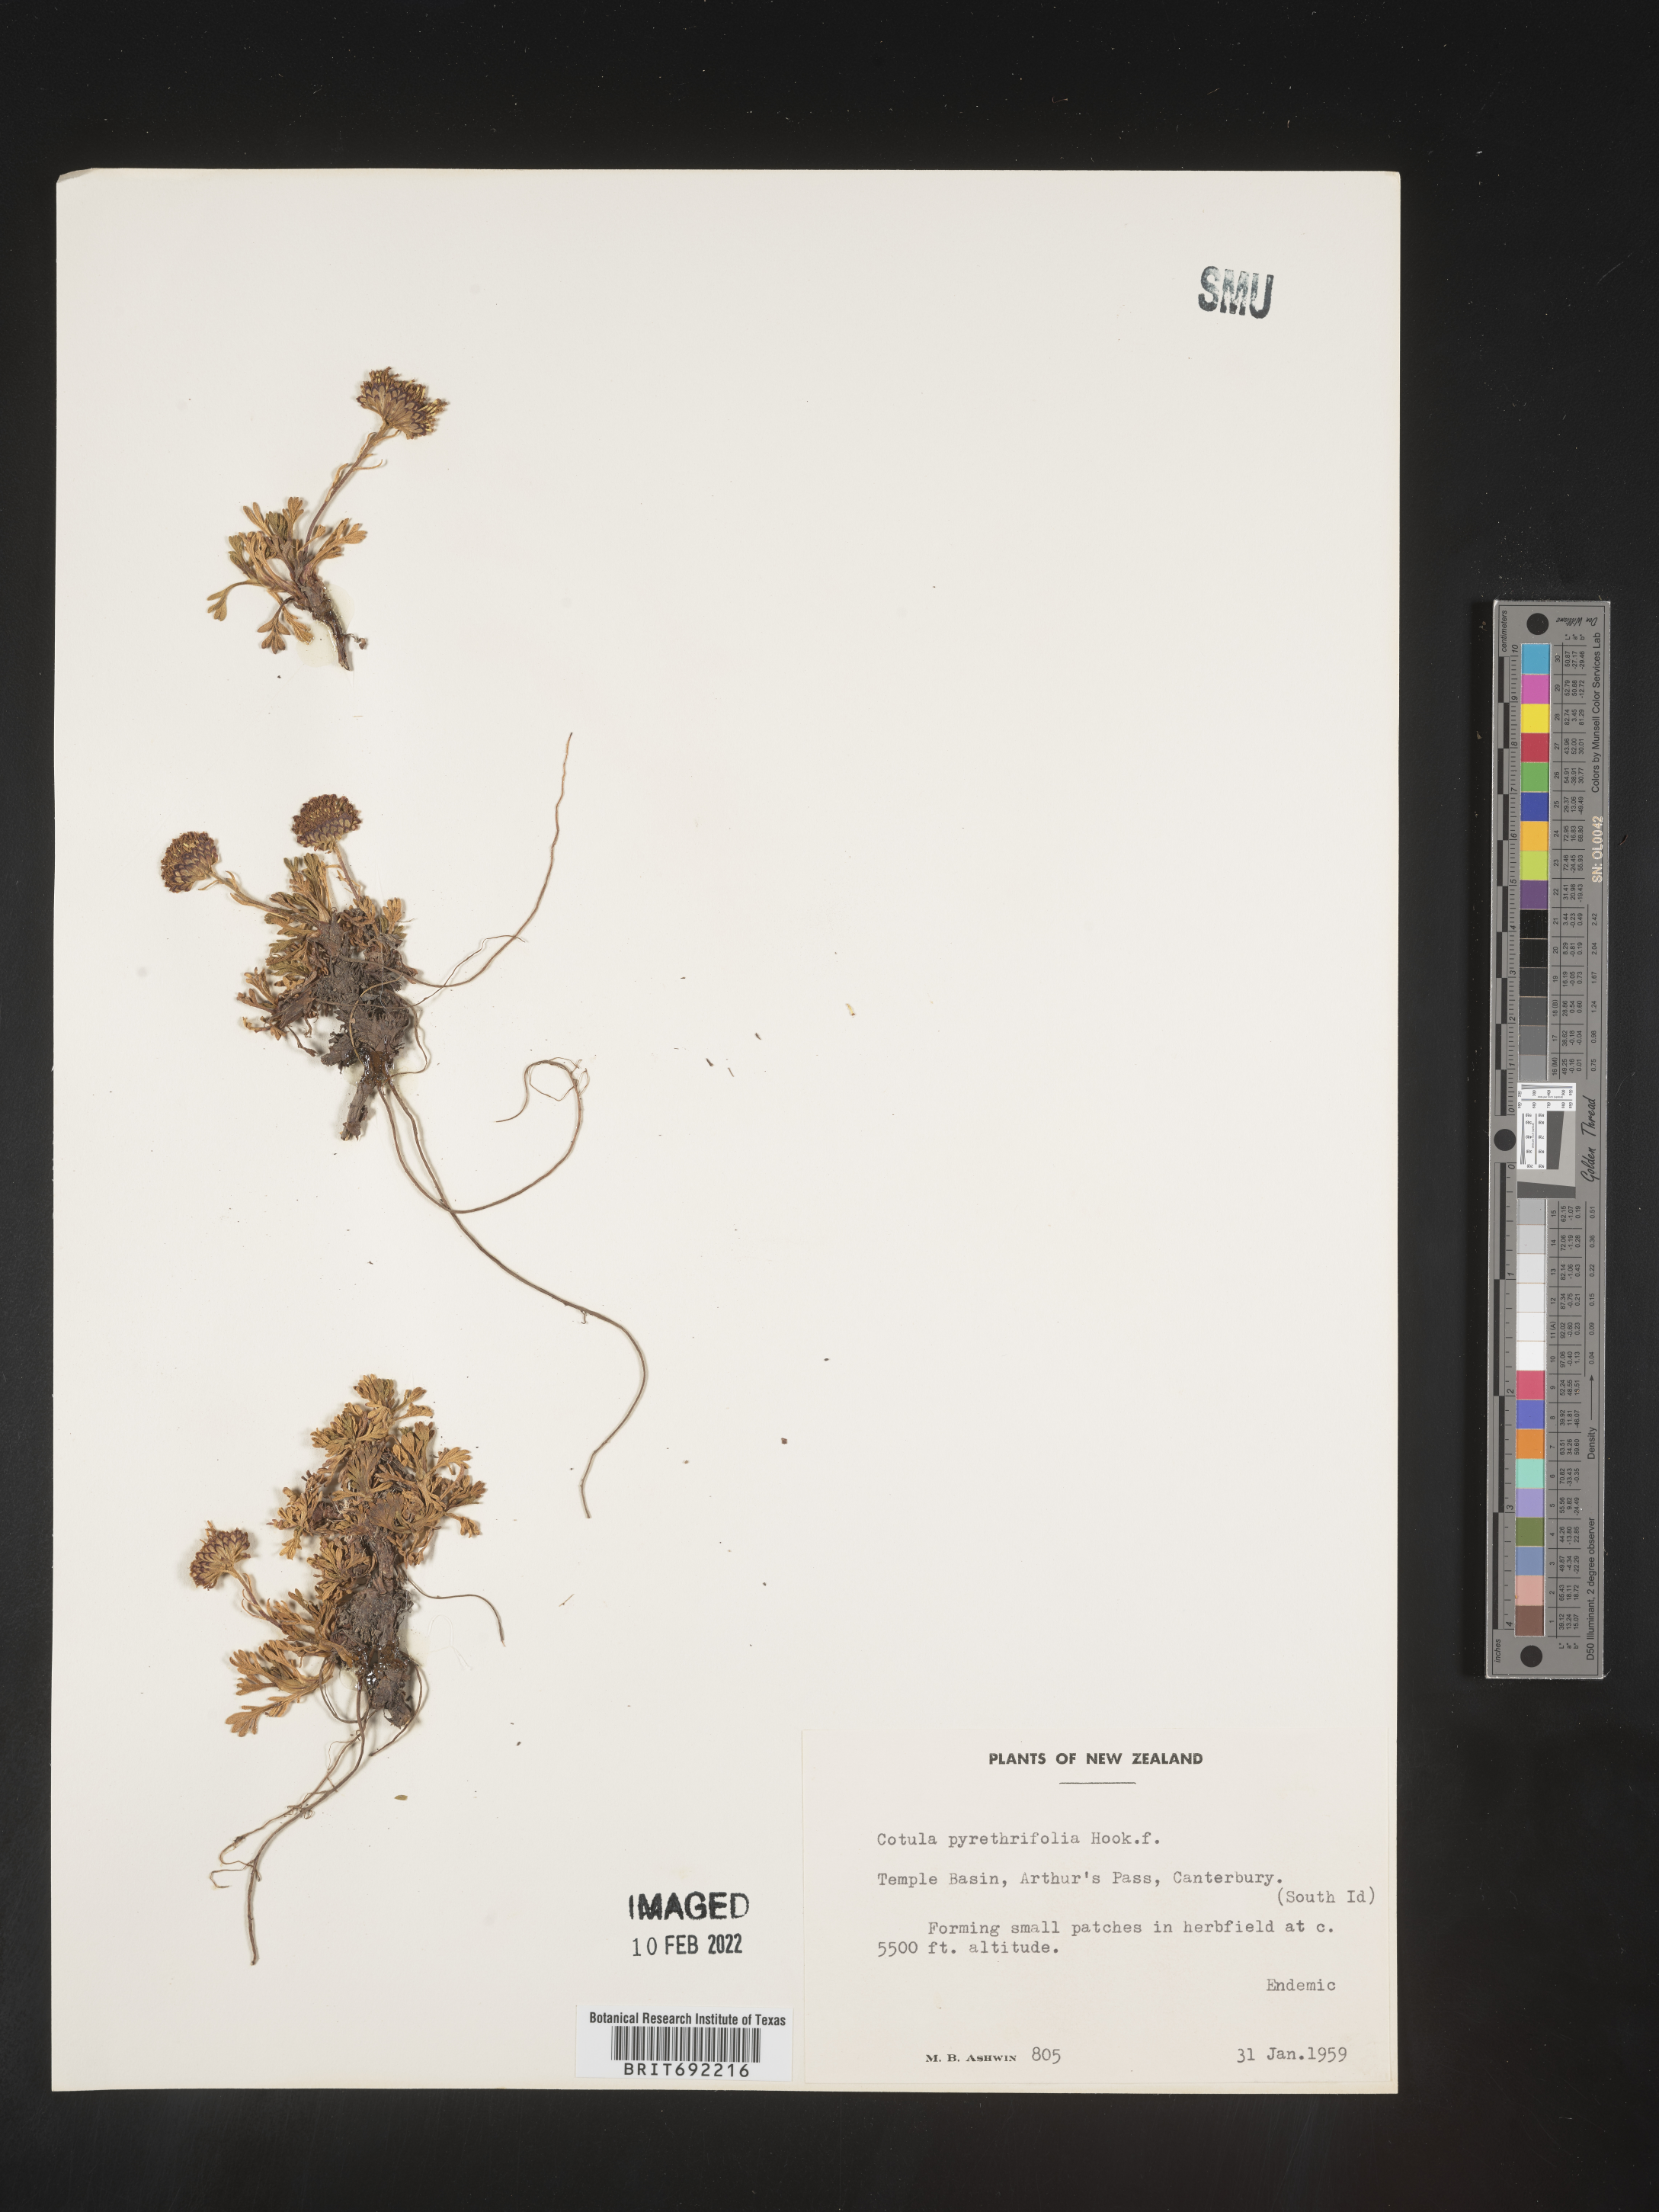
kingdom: Plantae
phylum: Tracheophyta
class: Magnoliopsida
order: Asterales
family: Asteraceae
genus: Cotula
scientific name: Cotula
